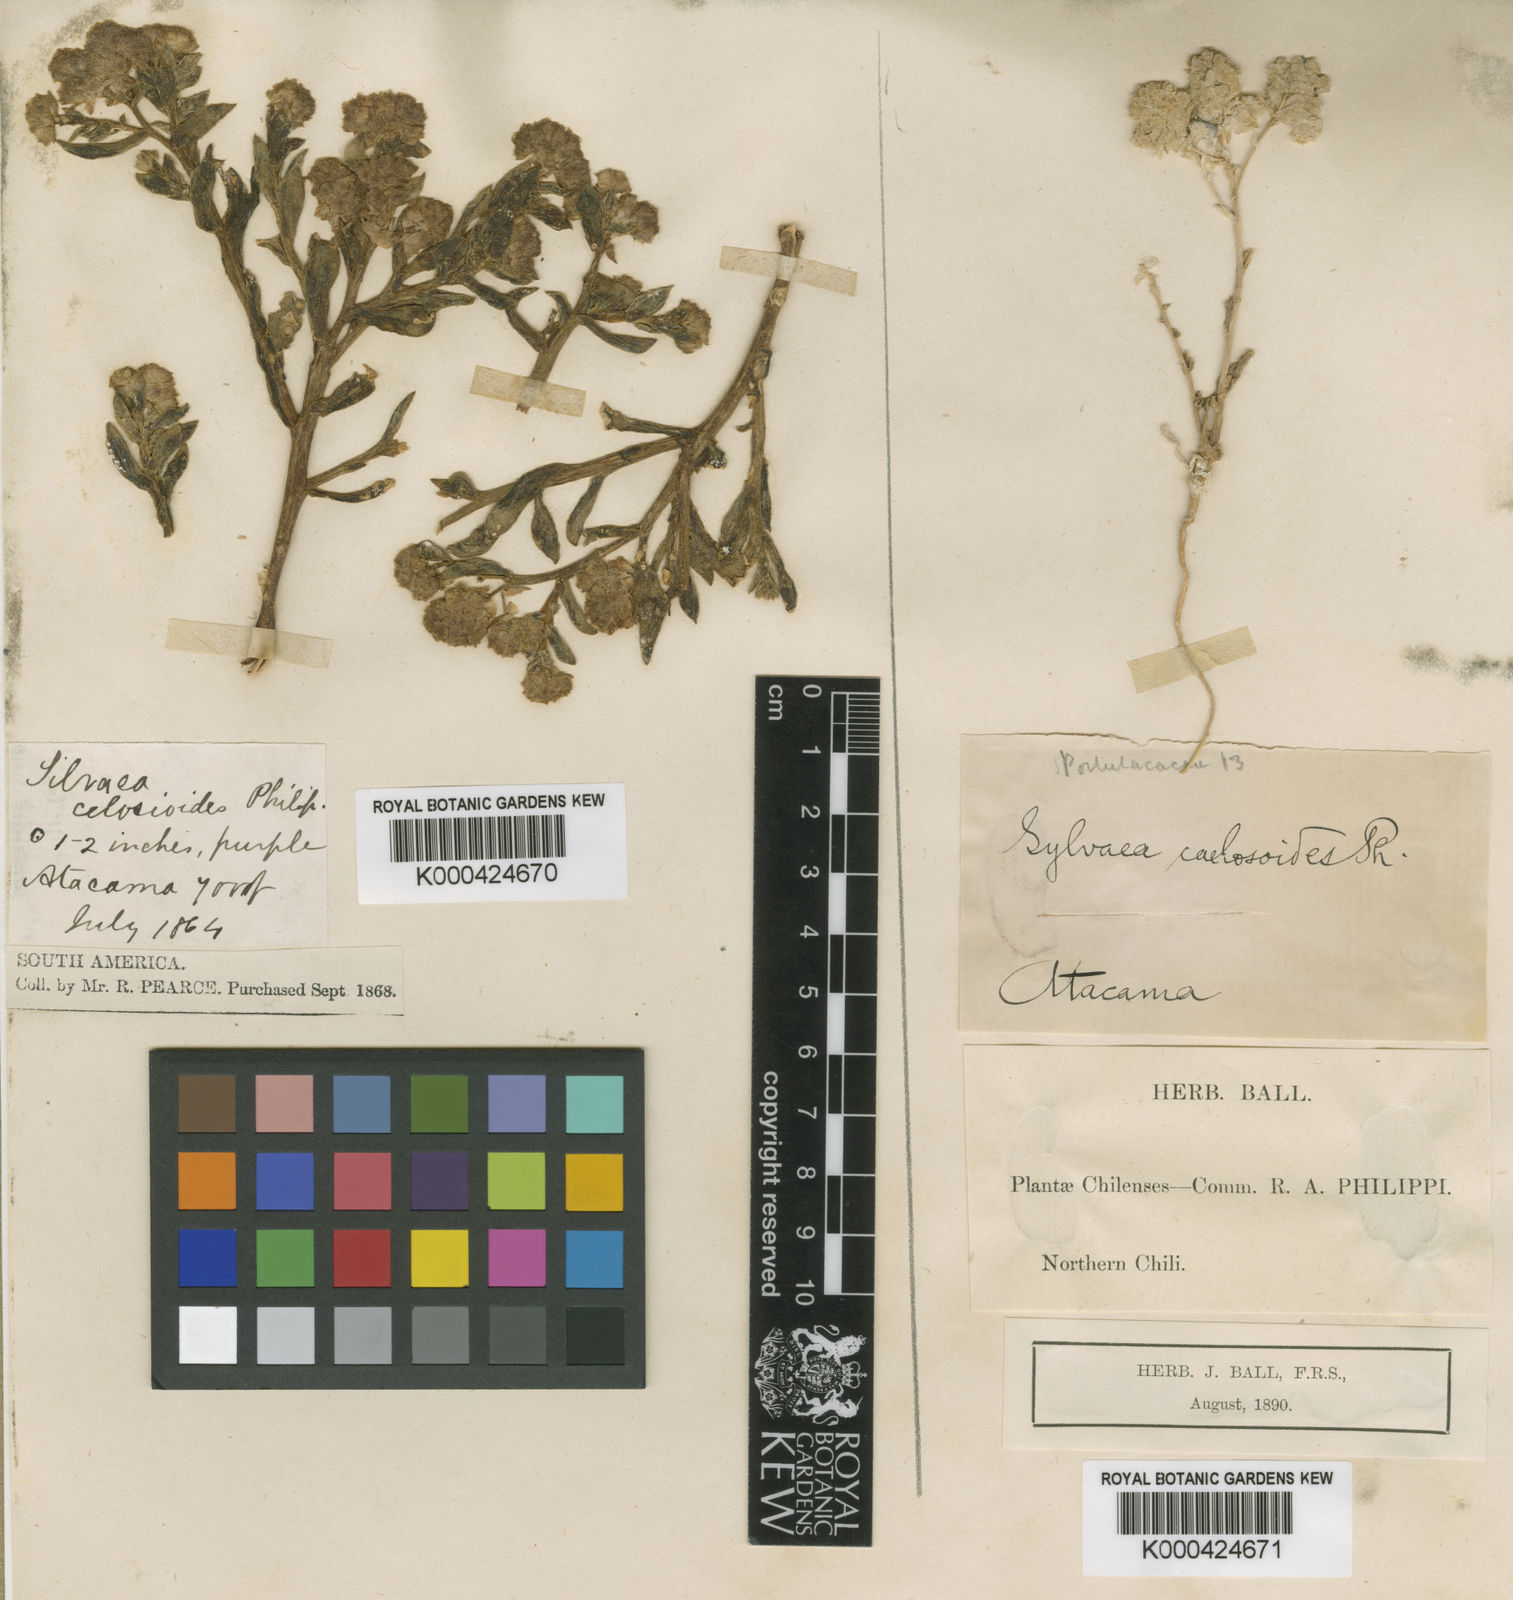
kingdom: Plantae
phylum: Tracheophyta
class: Magnoliopsida
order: Caryophyllales
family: Montiaceae
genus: Philippiamra
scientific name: Philippiamra celosioides
